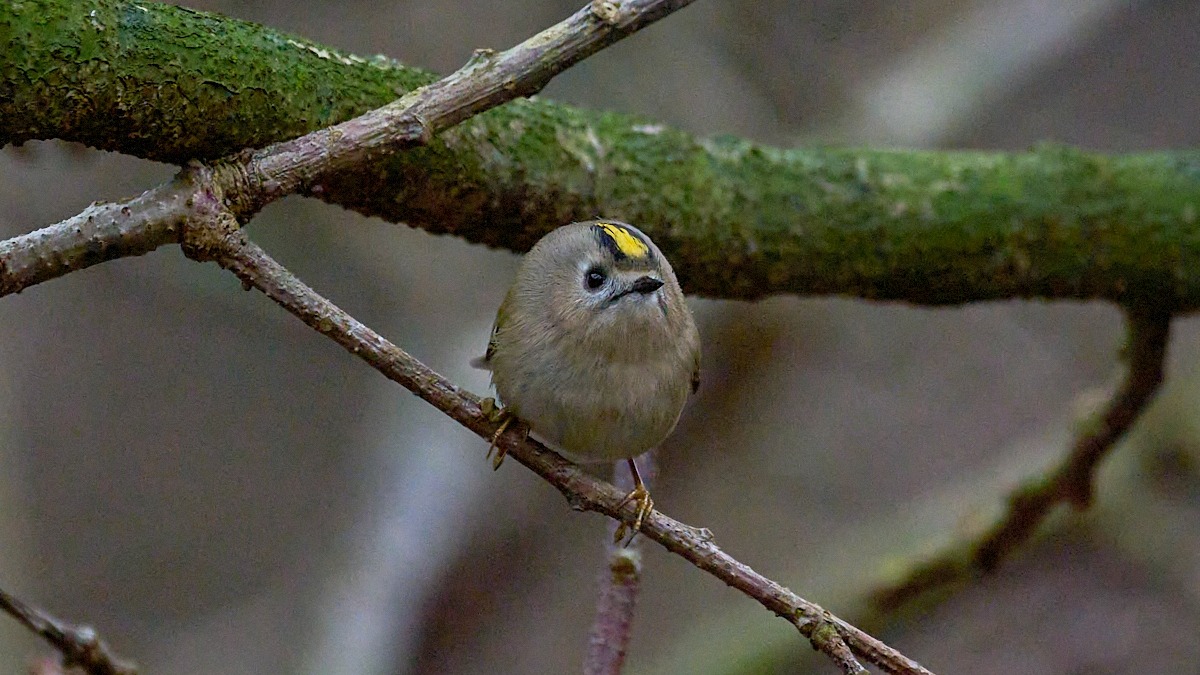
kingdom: Animalia
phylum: Chordata
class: Aves
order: Passeriformes
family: Regulidae
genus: Regulus
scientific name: Regulus regulus
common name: Fuglekonge
